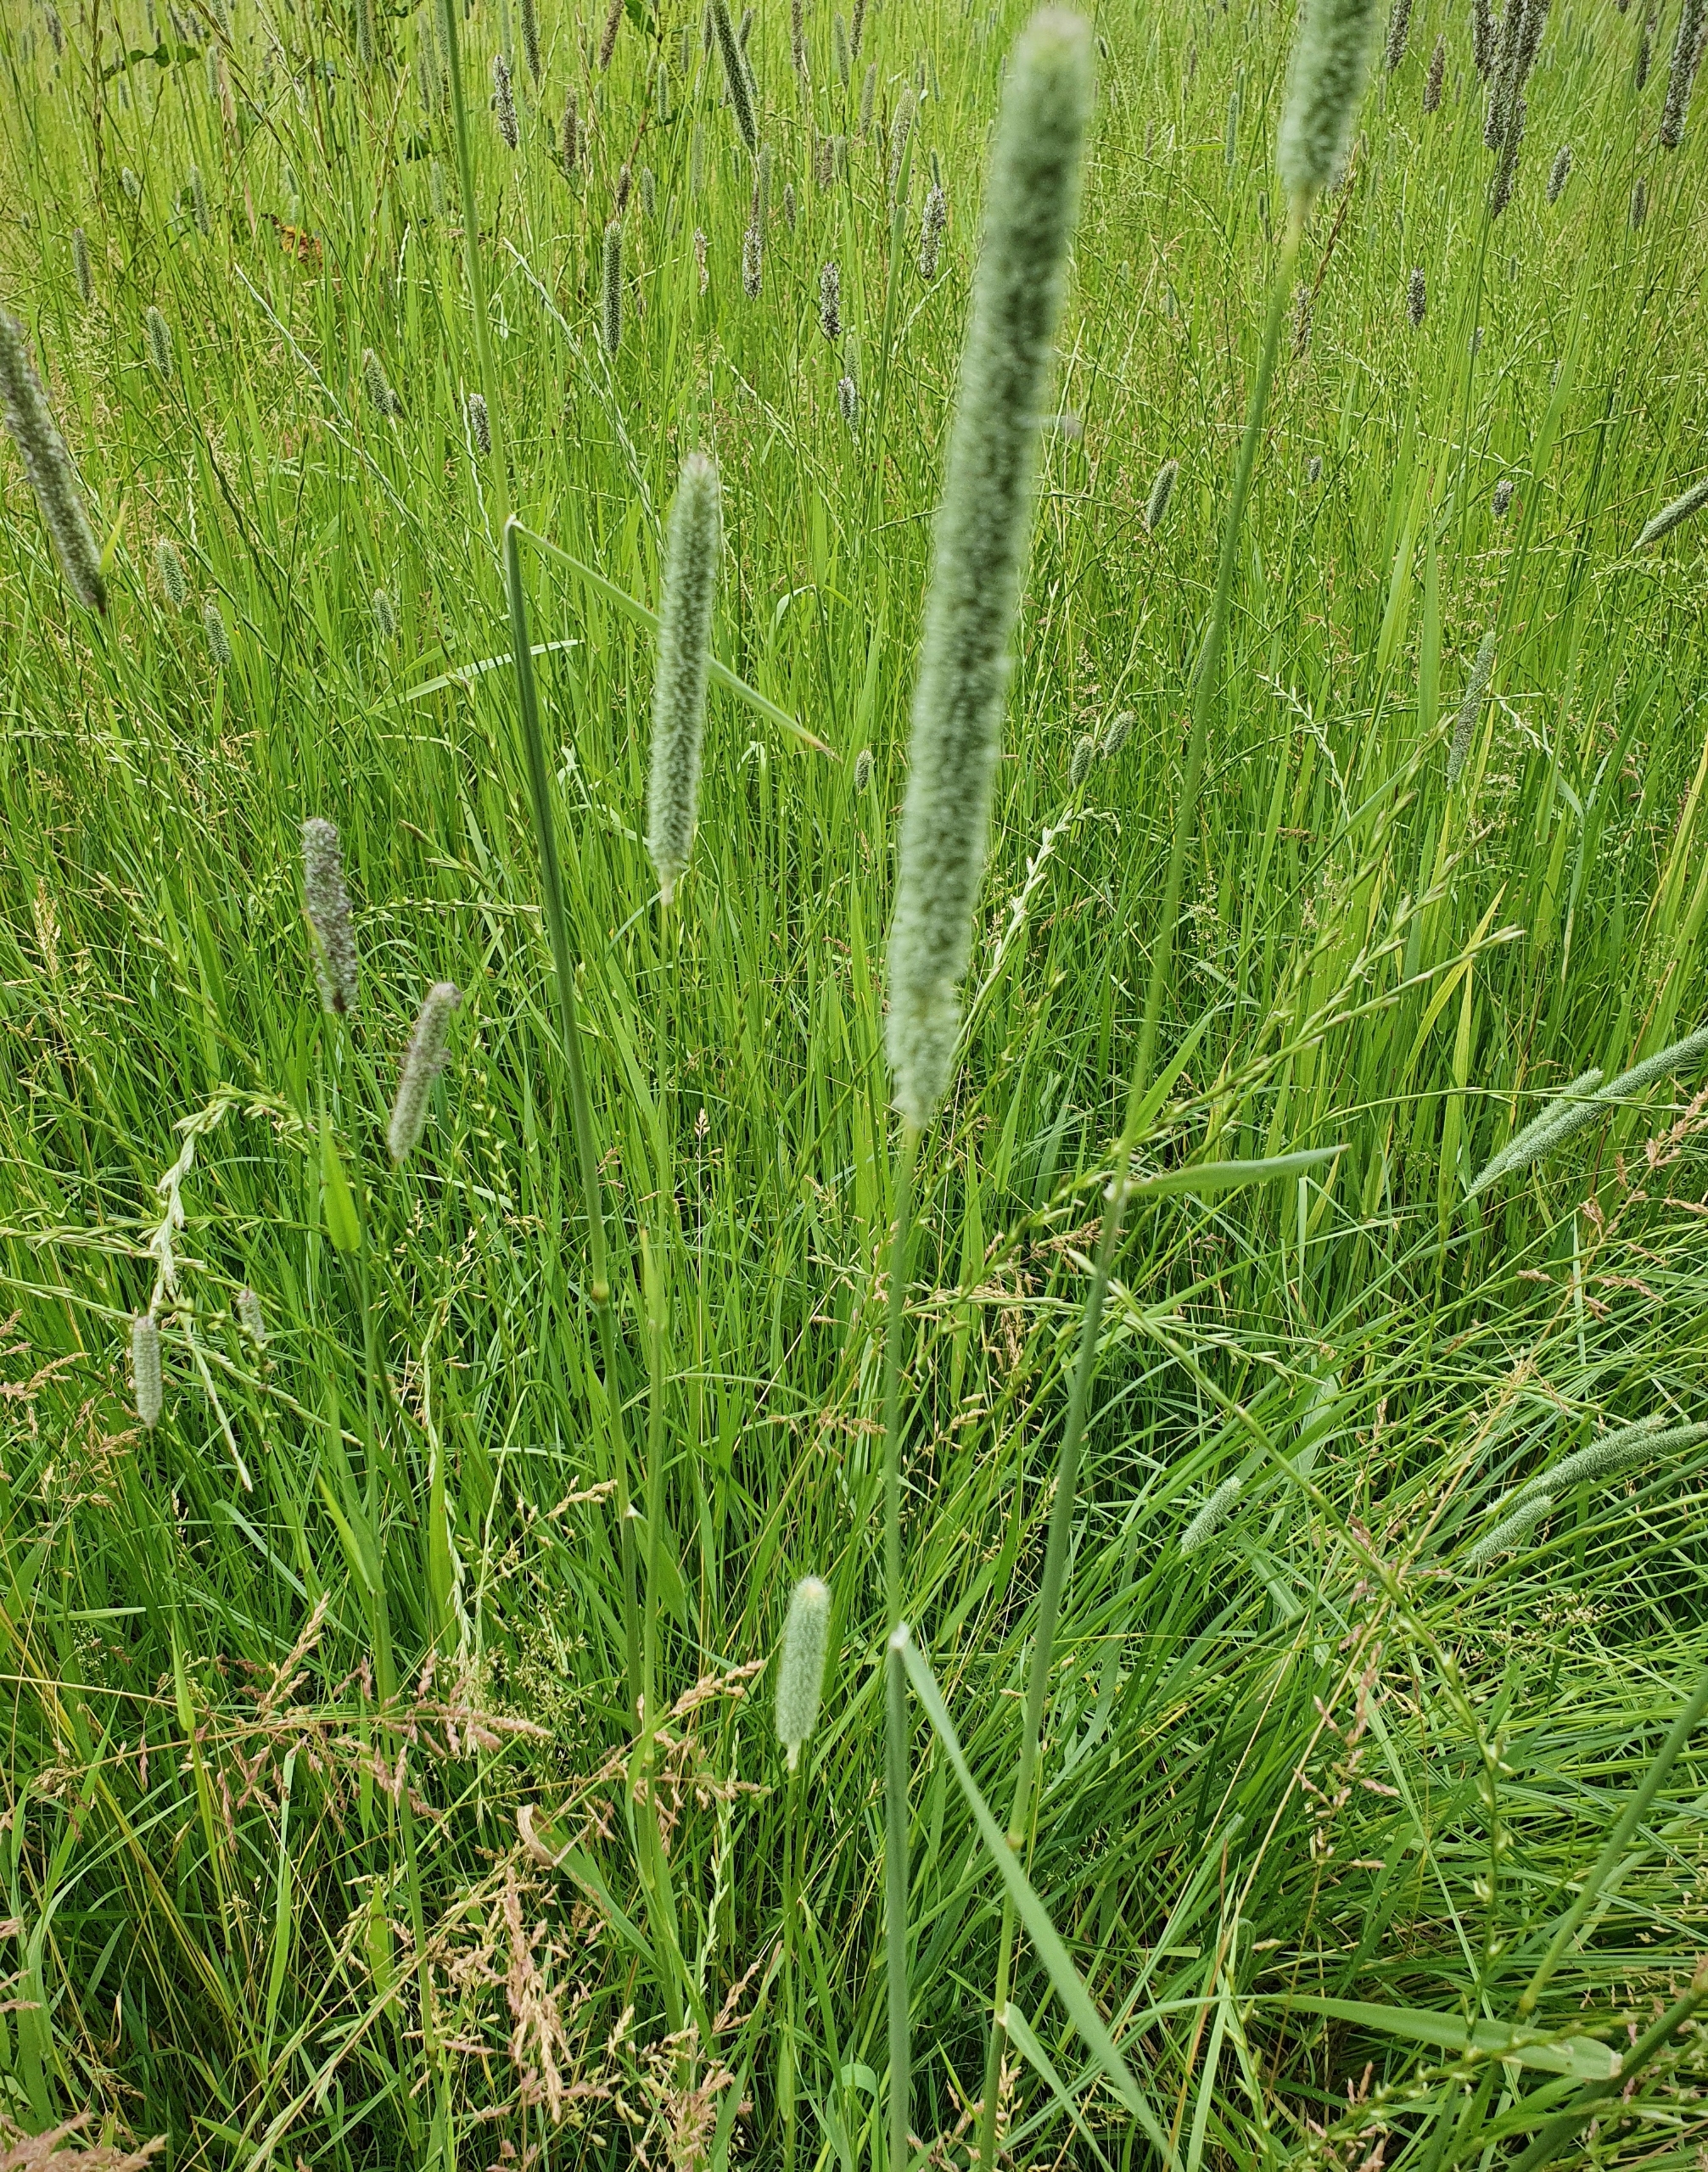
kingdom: Plantae
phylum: Tracheophyta
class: Liliopsida
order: Poales
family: Poaceae
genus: Phleum
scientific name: Phleum pratense
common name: Eng-rottehale
